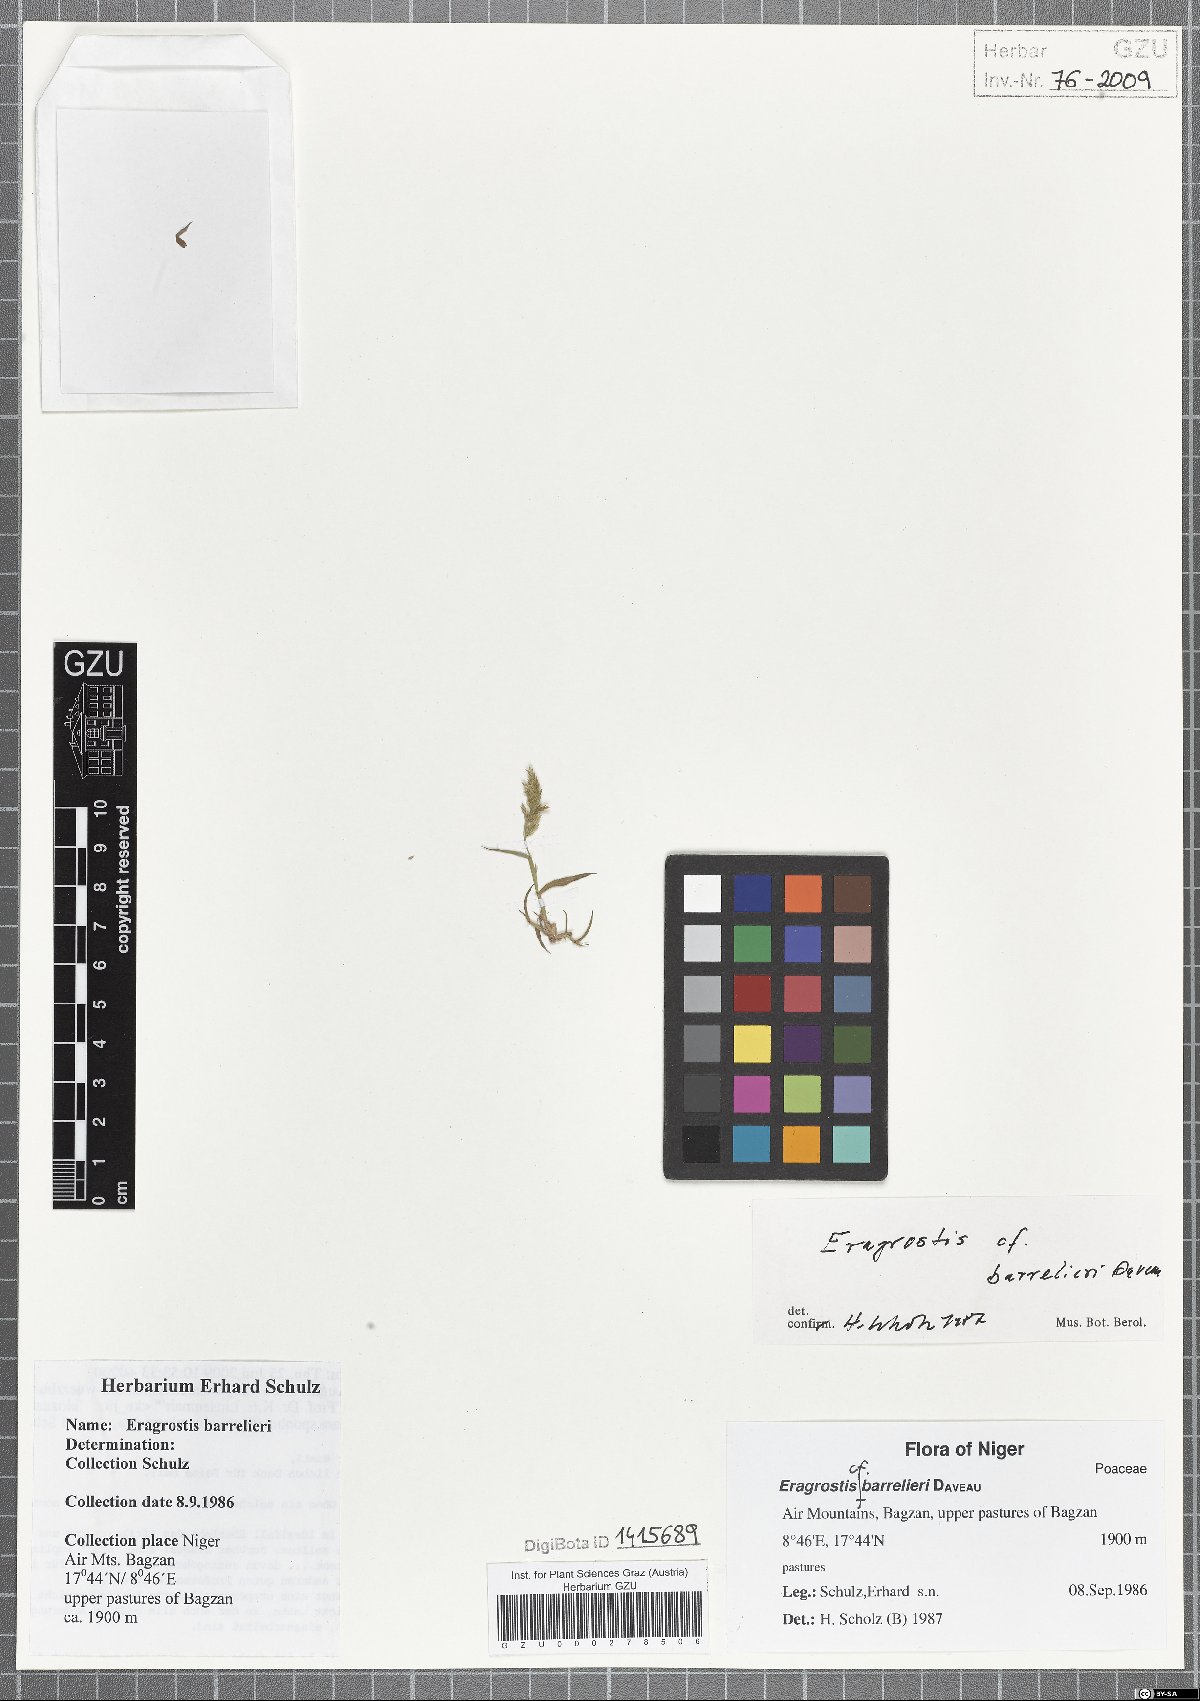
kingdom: Plantae
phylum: Tracheophyta
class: Liliopsida
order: Poales
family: Poaceae
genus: Eragrostis
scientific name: Eragrostis barrelieri
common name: Mediterranean lovegrass
